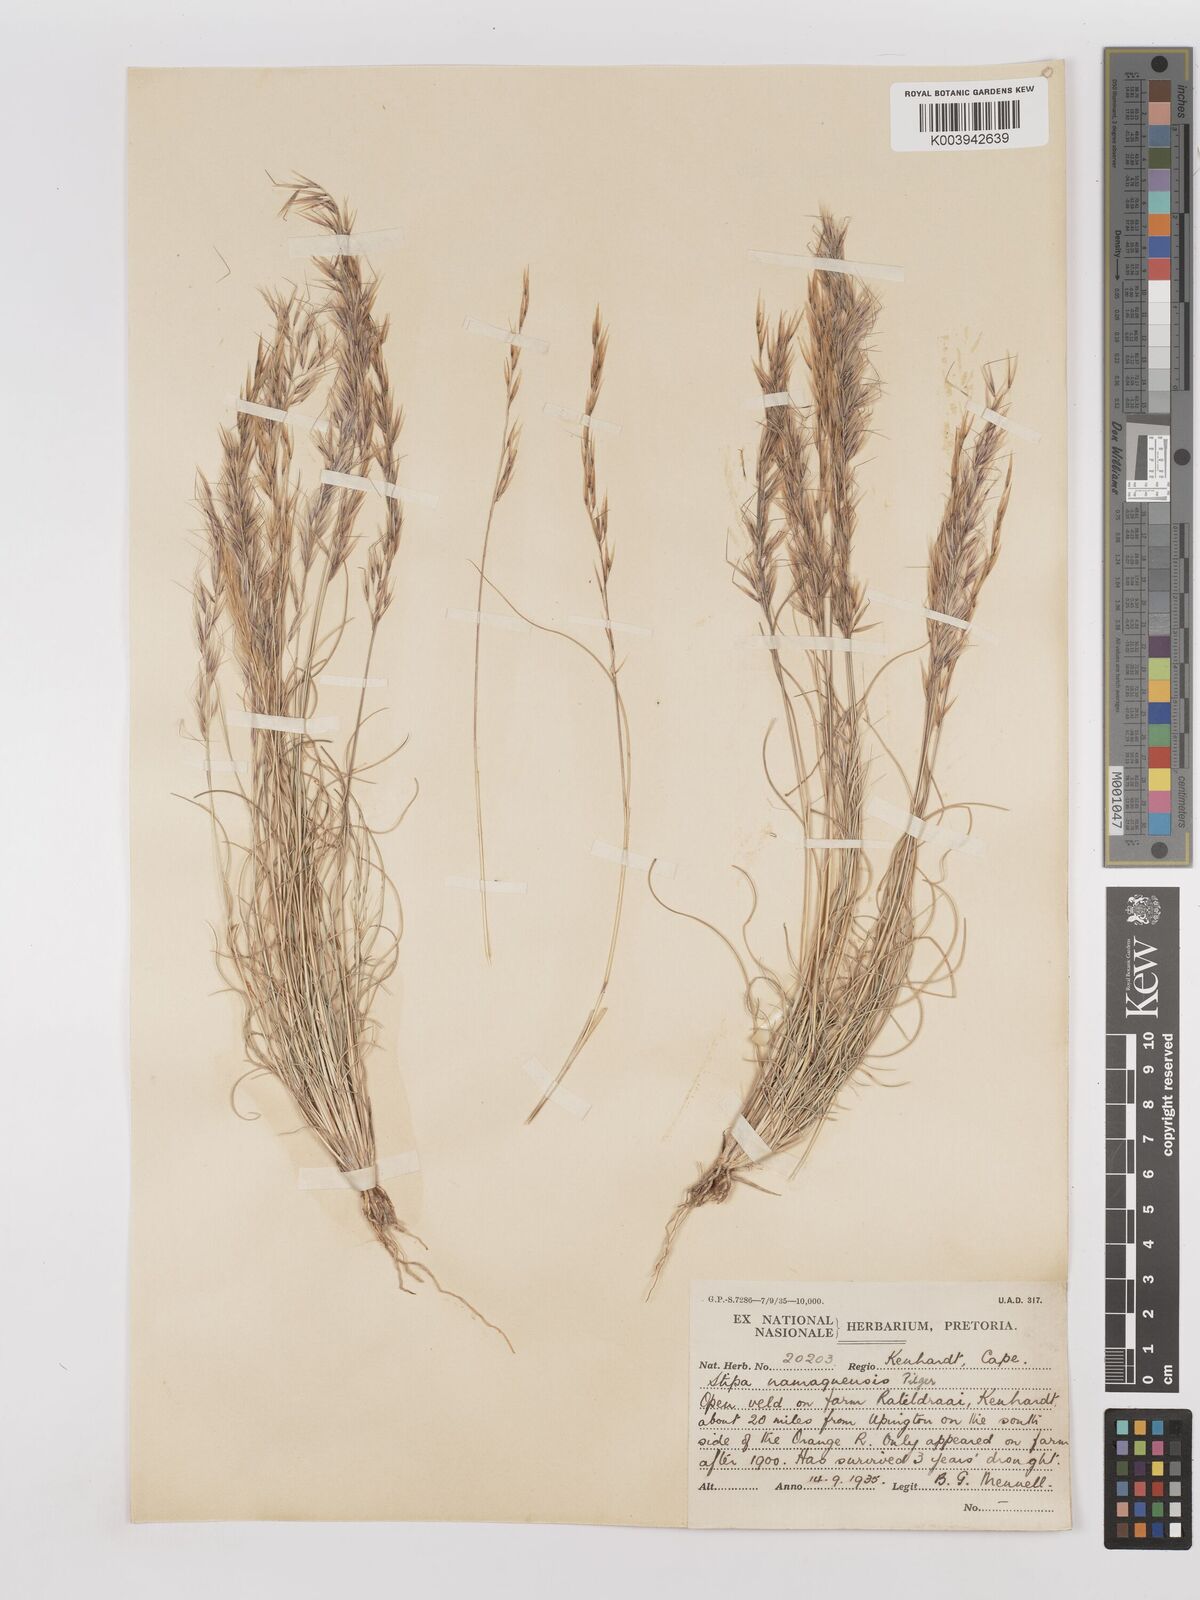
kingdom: Plantae
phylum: Tracheophyta
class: Liliopsida
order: Poales
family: Poaceae
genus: Stipagrostis
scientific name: Stipagrostis anomala
